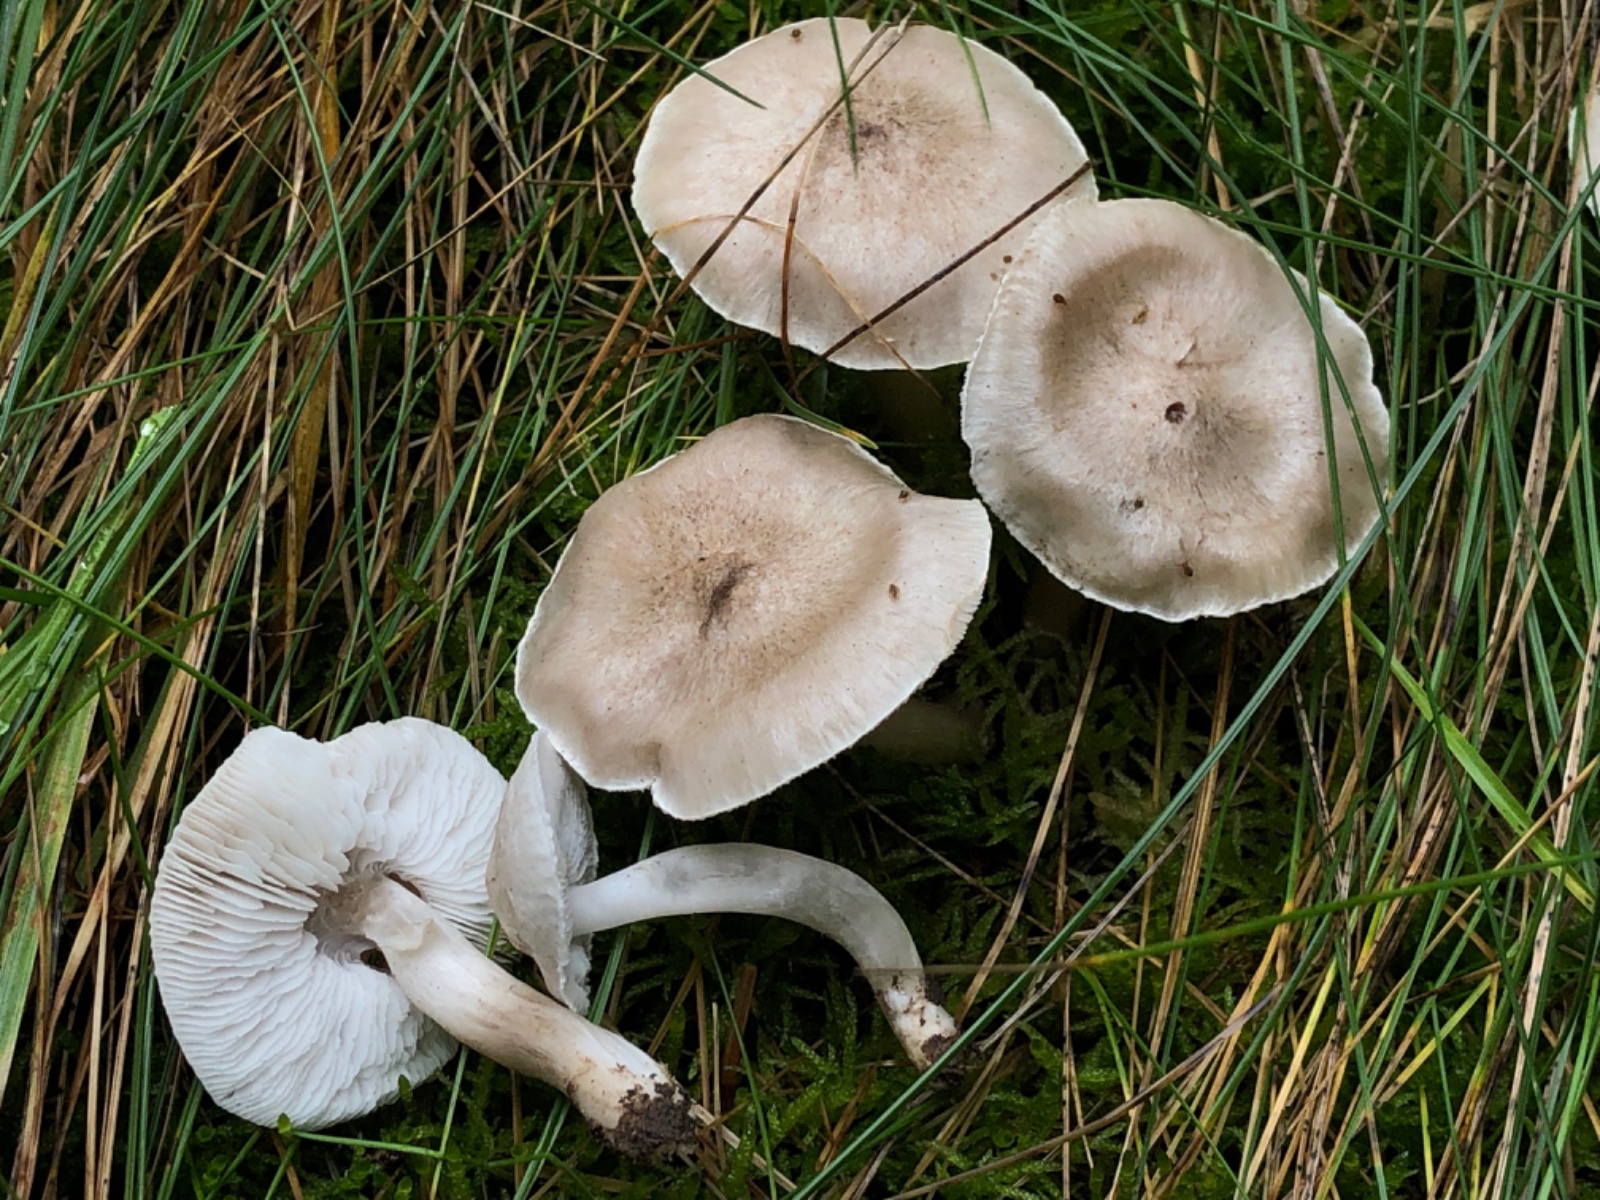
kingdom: Fungi
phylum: Basidiomycota
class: Agaricomycetes
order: Agaricales
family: Tricholomataceae
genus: Tricholoma
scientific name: Tricholoma
